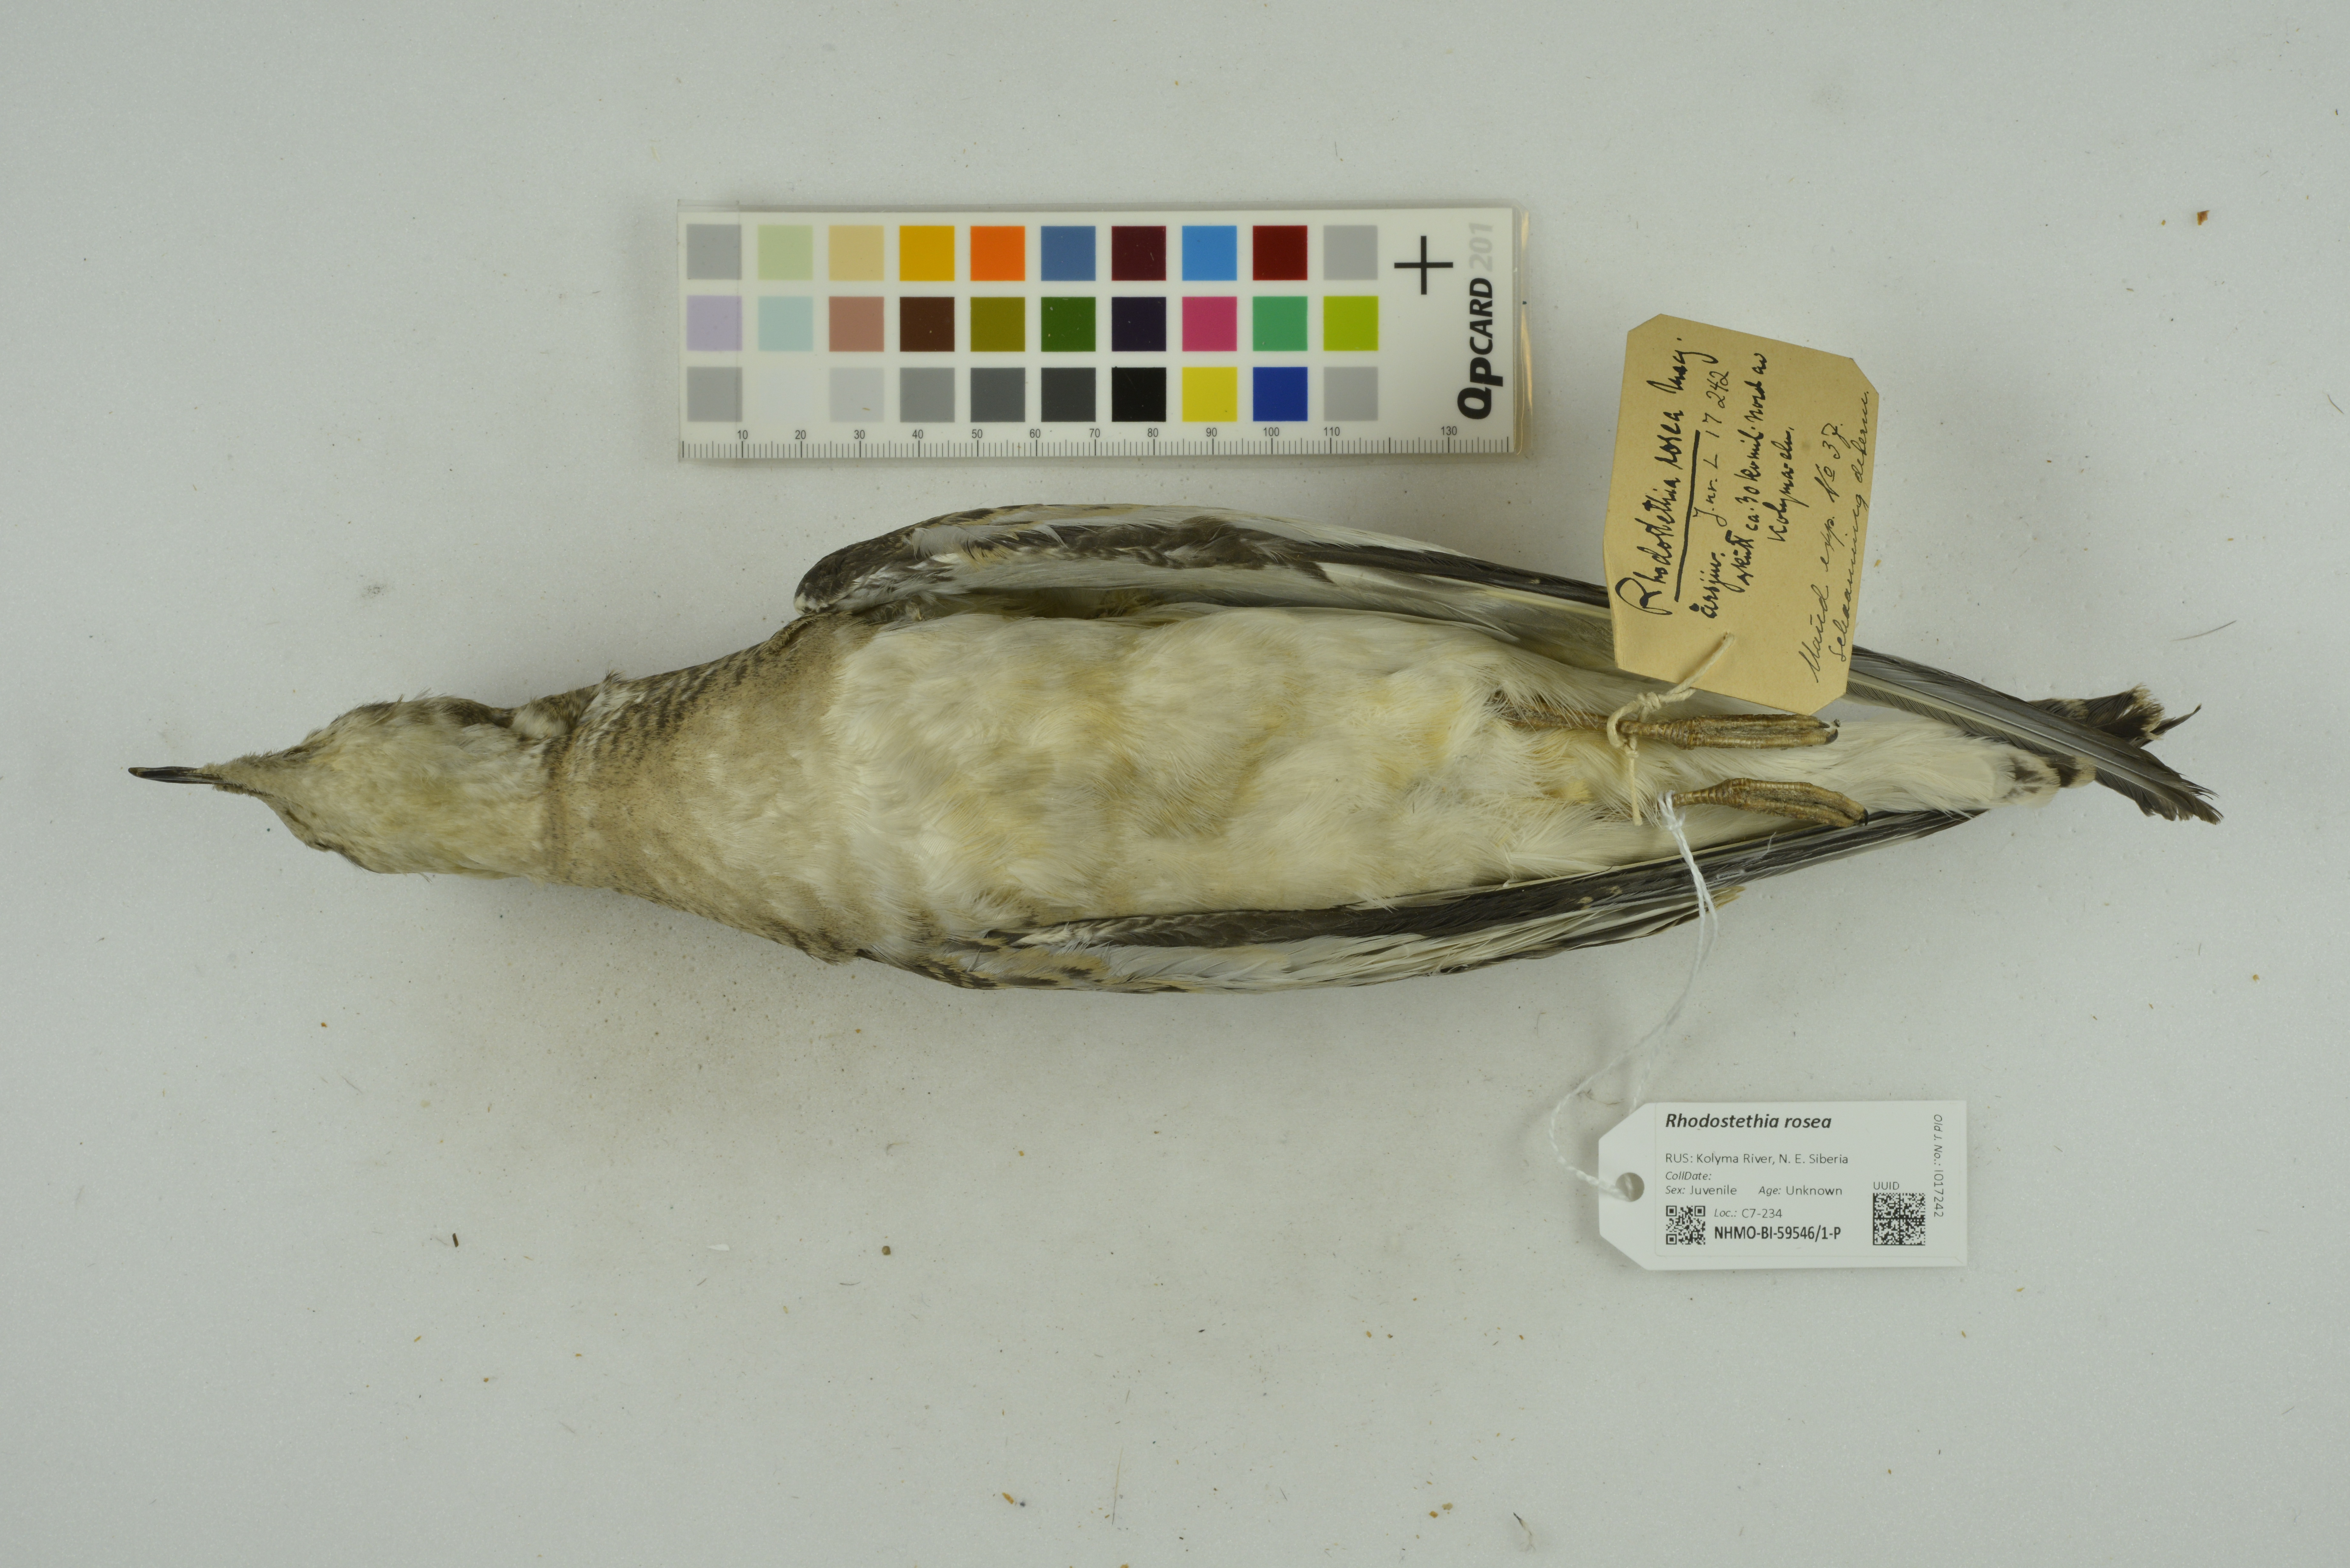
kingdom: Animalia
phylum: Chordata
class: Aves
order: Charadriiformes
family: Laridae
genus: Rhodostethia
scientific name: Rhodostethia rosea
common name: Ross's gull
